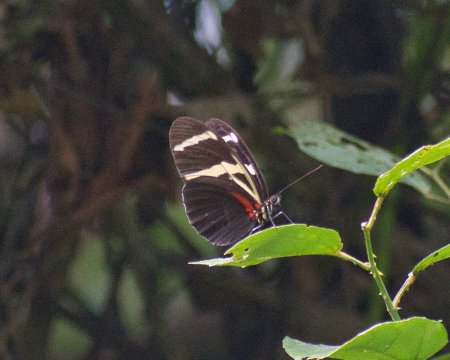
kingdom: Animalia
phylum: Arthropoda
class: Insecta
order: Lepidoptera
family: Nymphalidae
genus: Heliconius
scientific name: Heliconius
